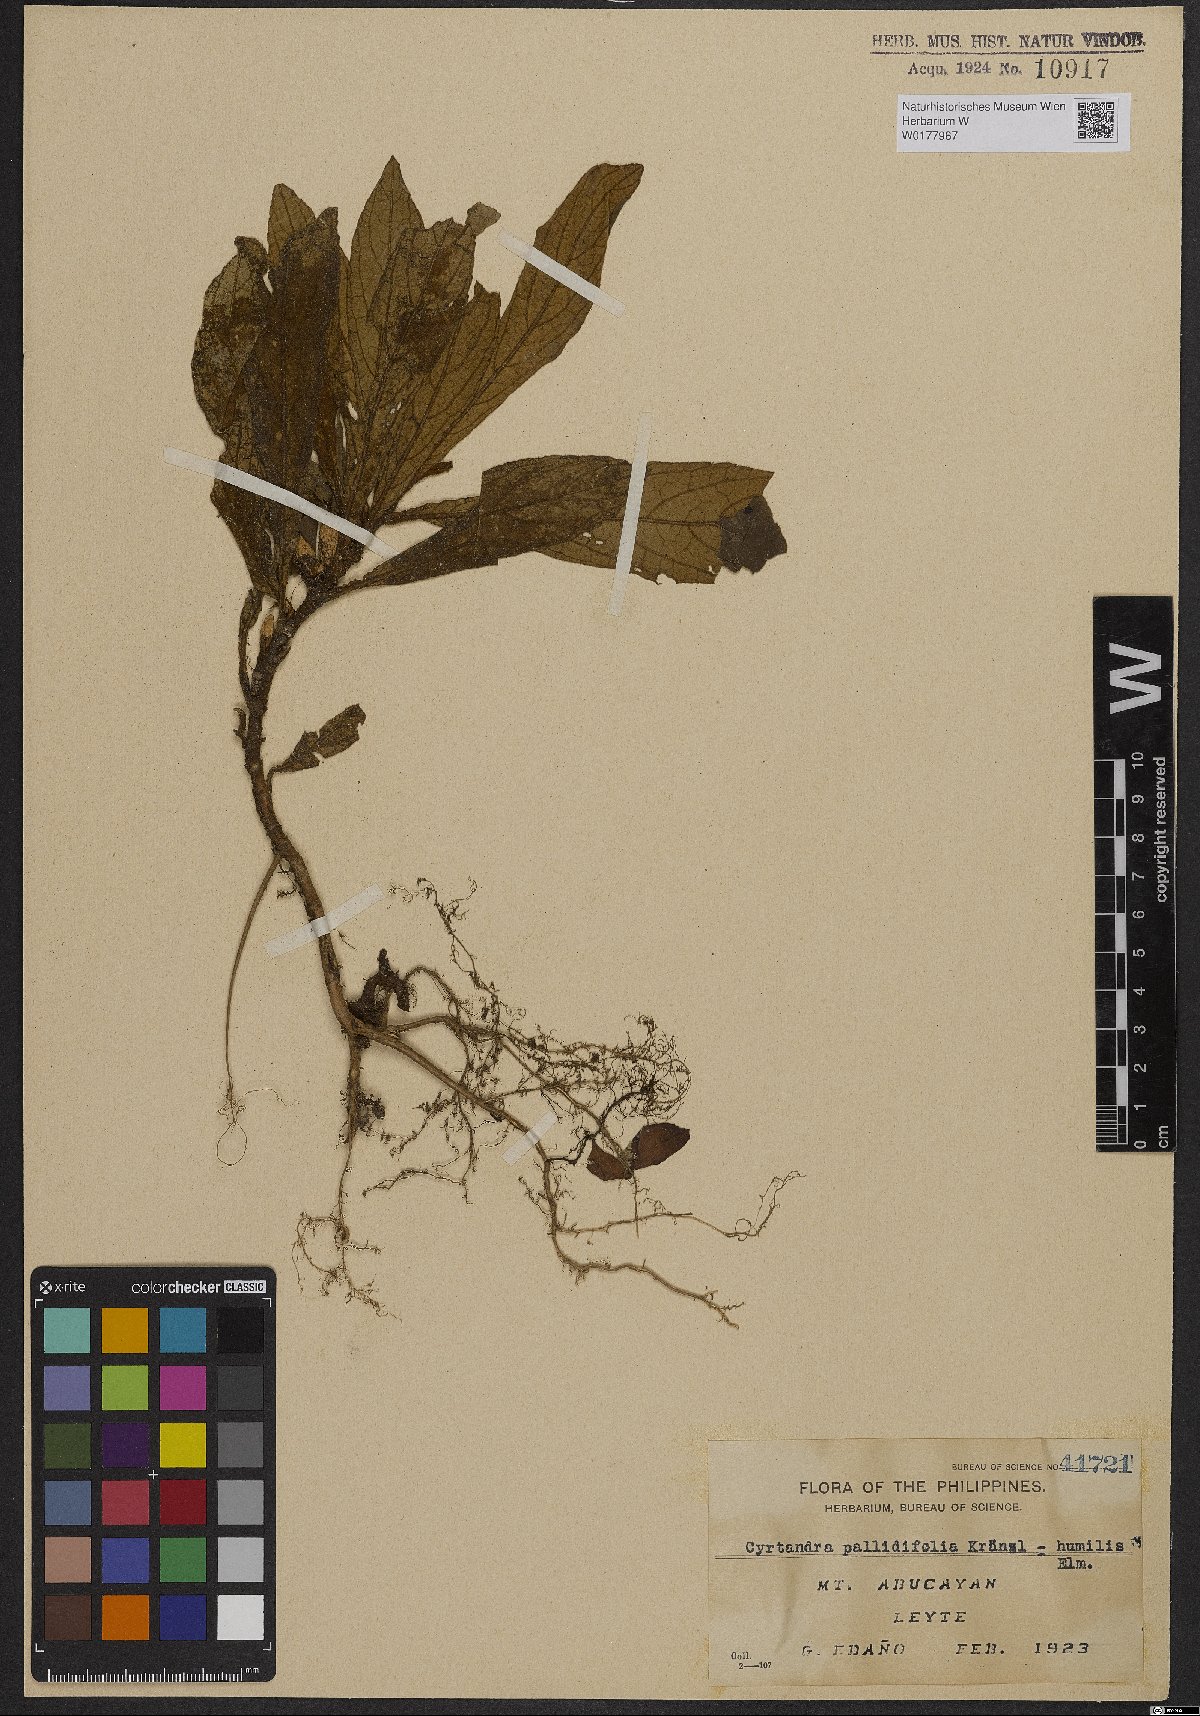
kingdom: Plantae
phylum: Tracheophyta
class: Magnoliopsida
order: Lamiales
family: Gesneriaceae
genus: Cyrtandra
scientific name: Cyrtandra humilis
